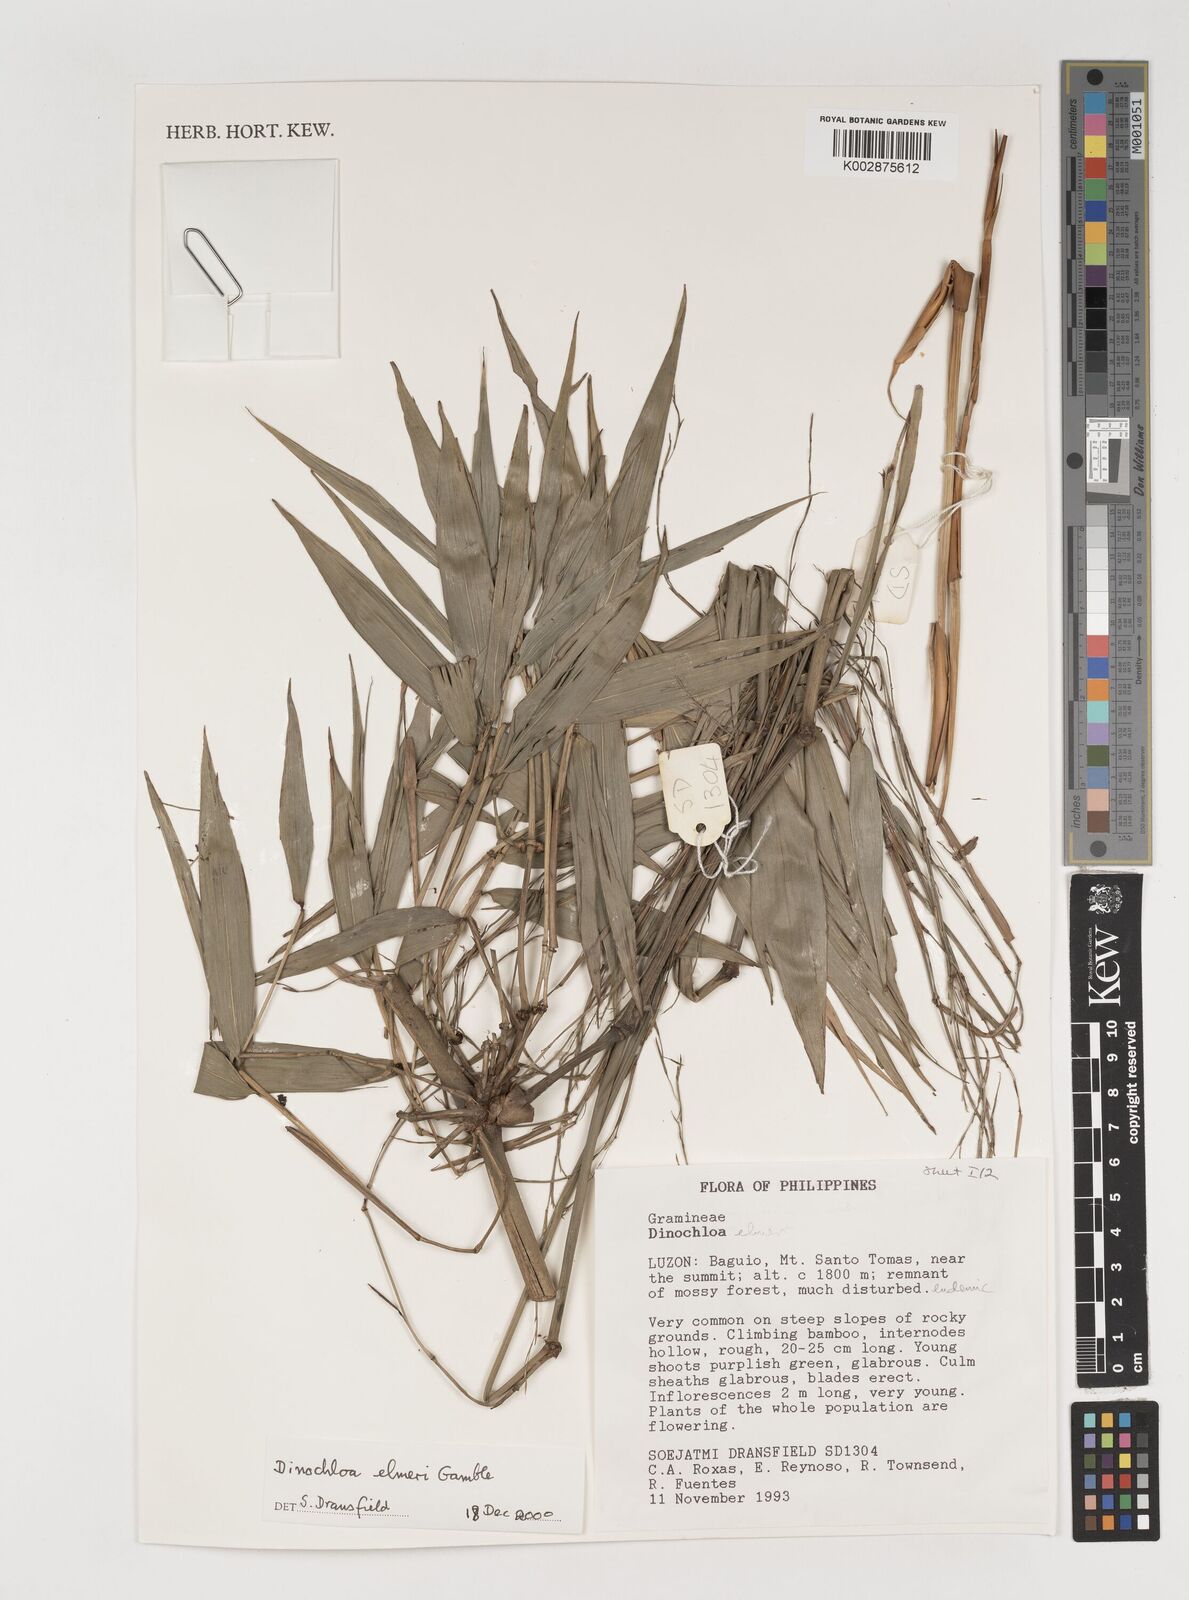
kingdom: Plantae
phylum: Tracheophyta
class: Liliopsida
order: Poales
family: Poaceae
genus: Dinochloa
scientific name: Dinochloa
